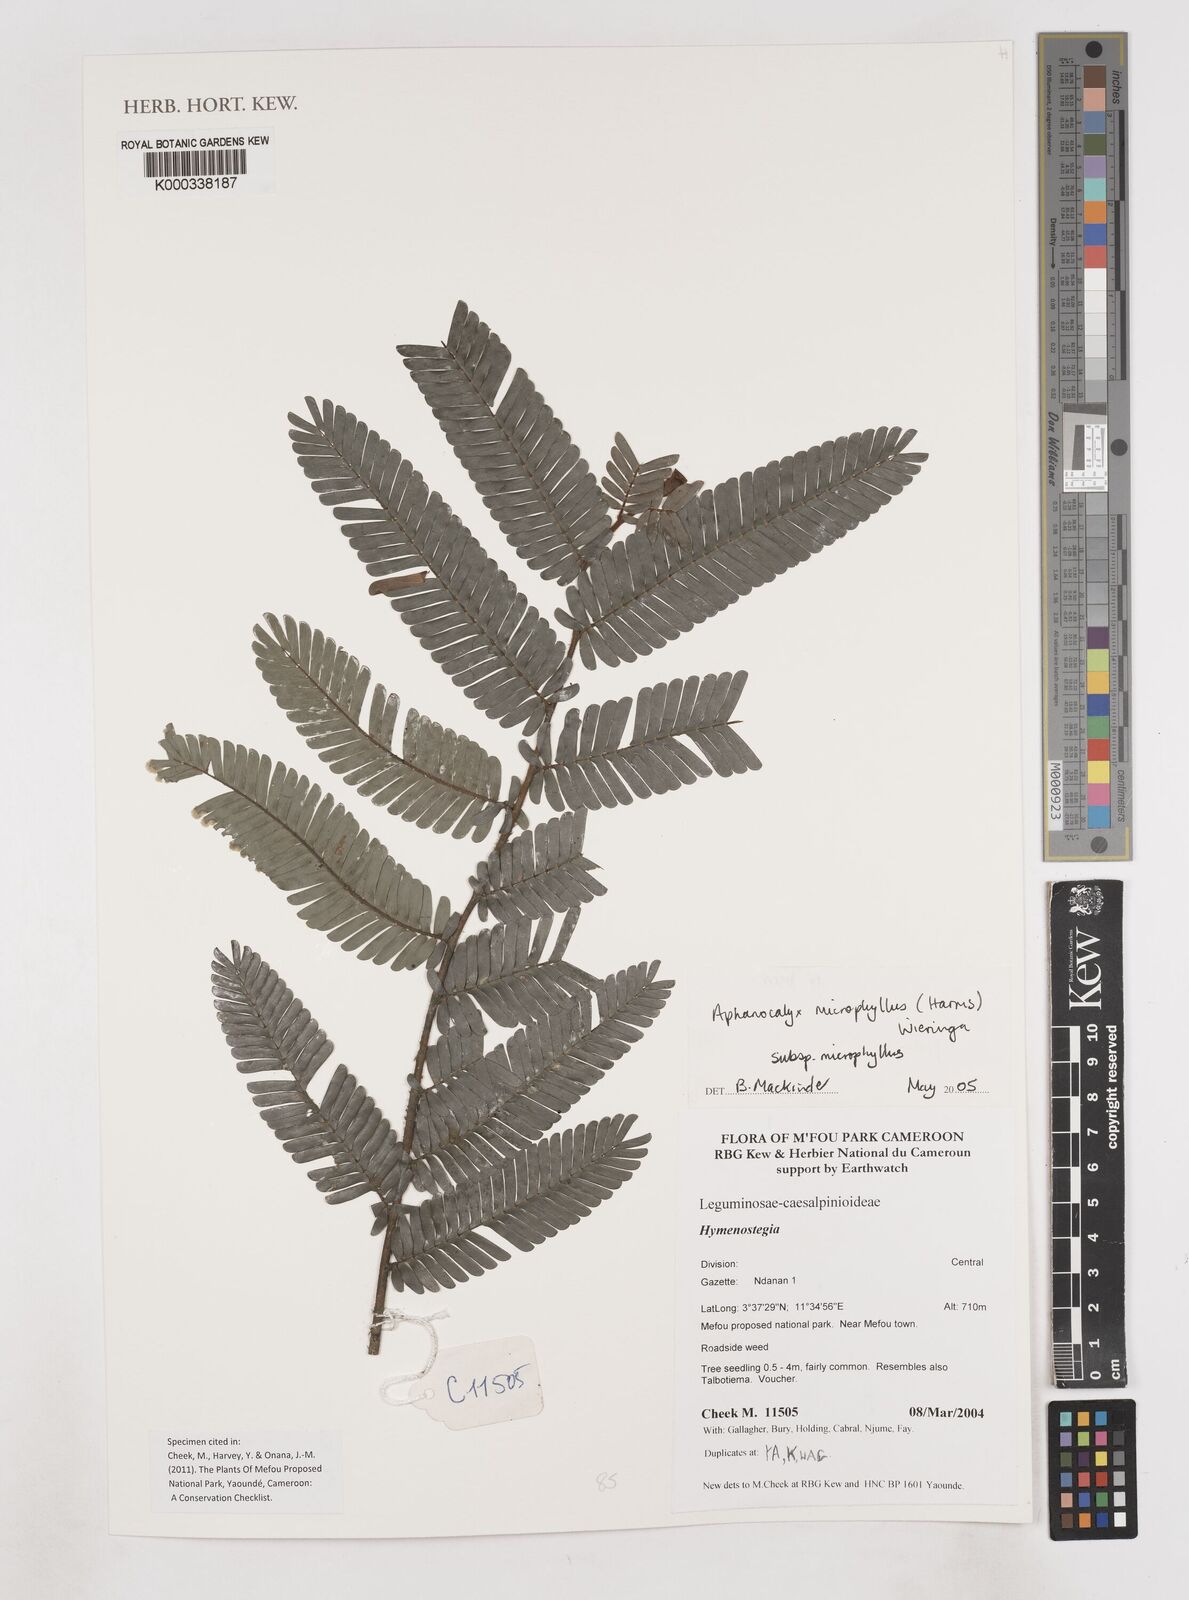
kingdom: Plantae
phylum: Tracheophyta
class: Magnoliopsida
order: Fabales
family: Fabaceae
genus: Aphanocalyx
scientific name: Aphanocalyx microphyllus
